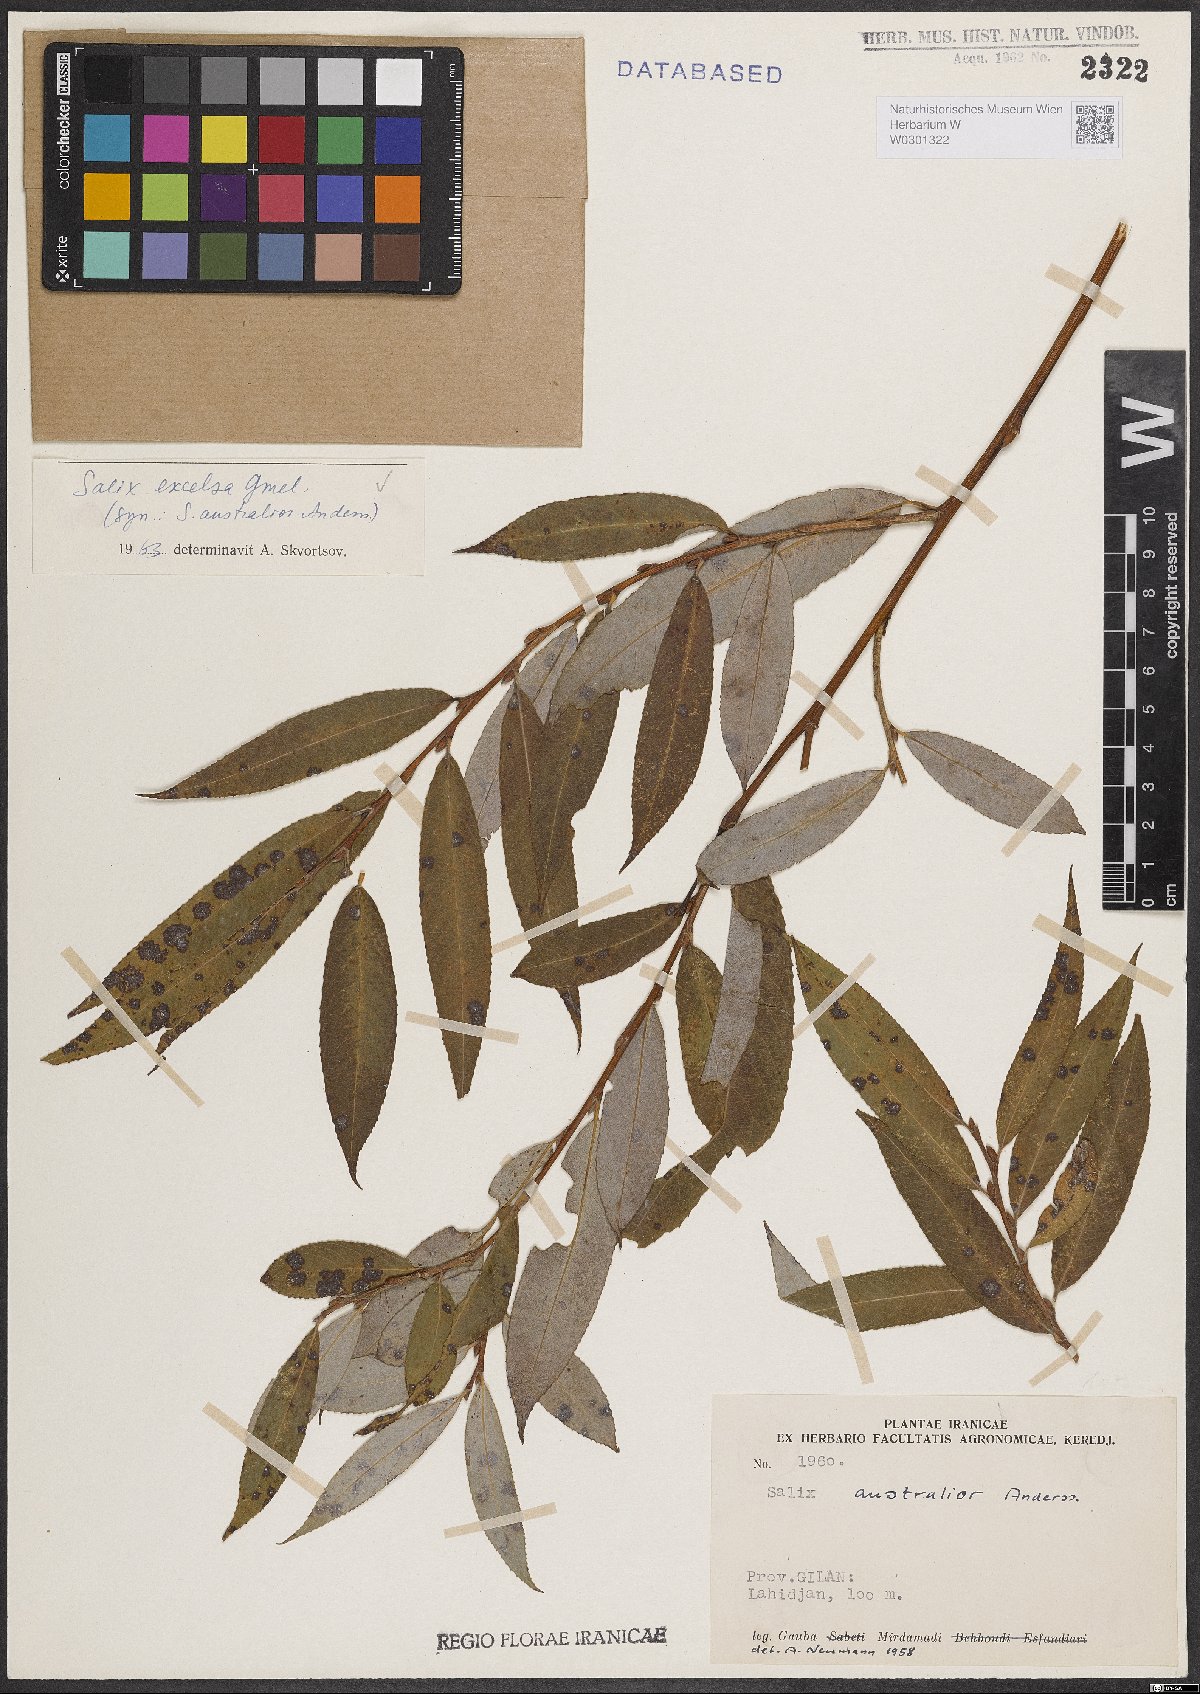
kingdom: Plantae
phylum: Tracheophyta
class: Magnoliopsida
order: Malpighiales
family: Salicaceae
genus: Salix
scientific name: Salix excelsa
